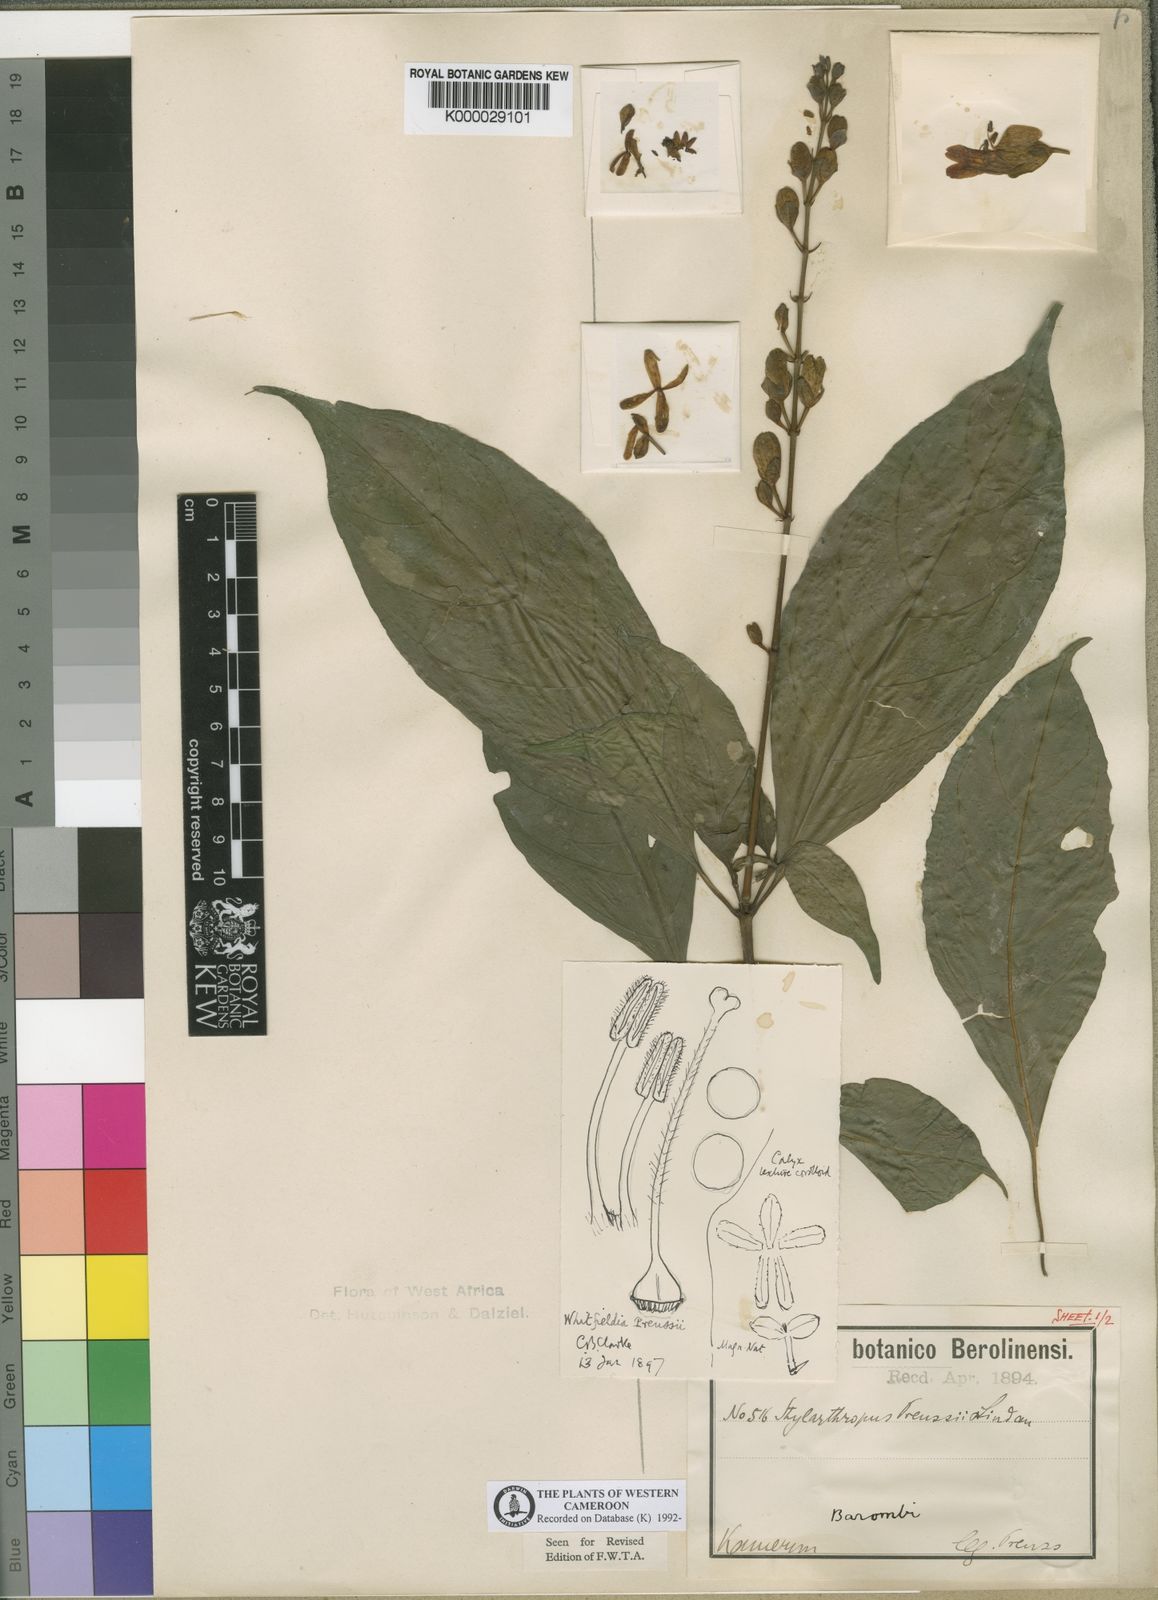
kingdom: Plantae
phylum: Tracheophyta
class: Magnoliopsida
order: Lamiales
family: Acanthaceae
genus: Whitfieldia
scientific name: Whitfieldia preussii
